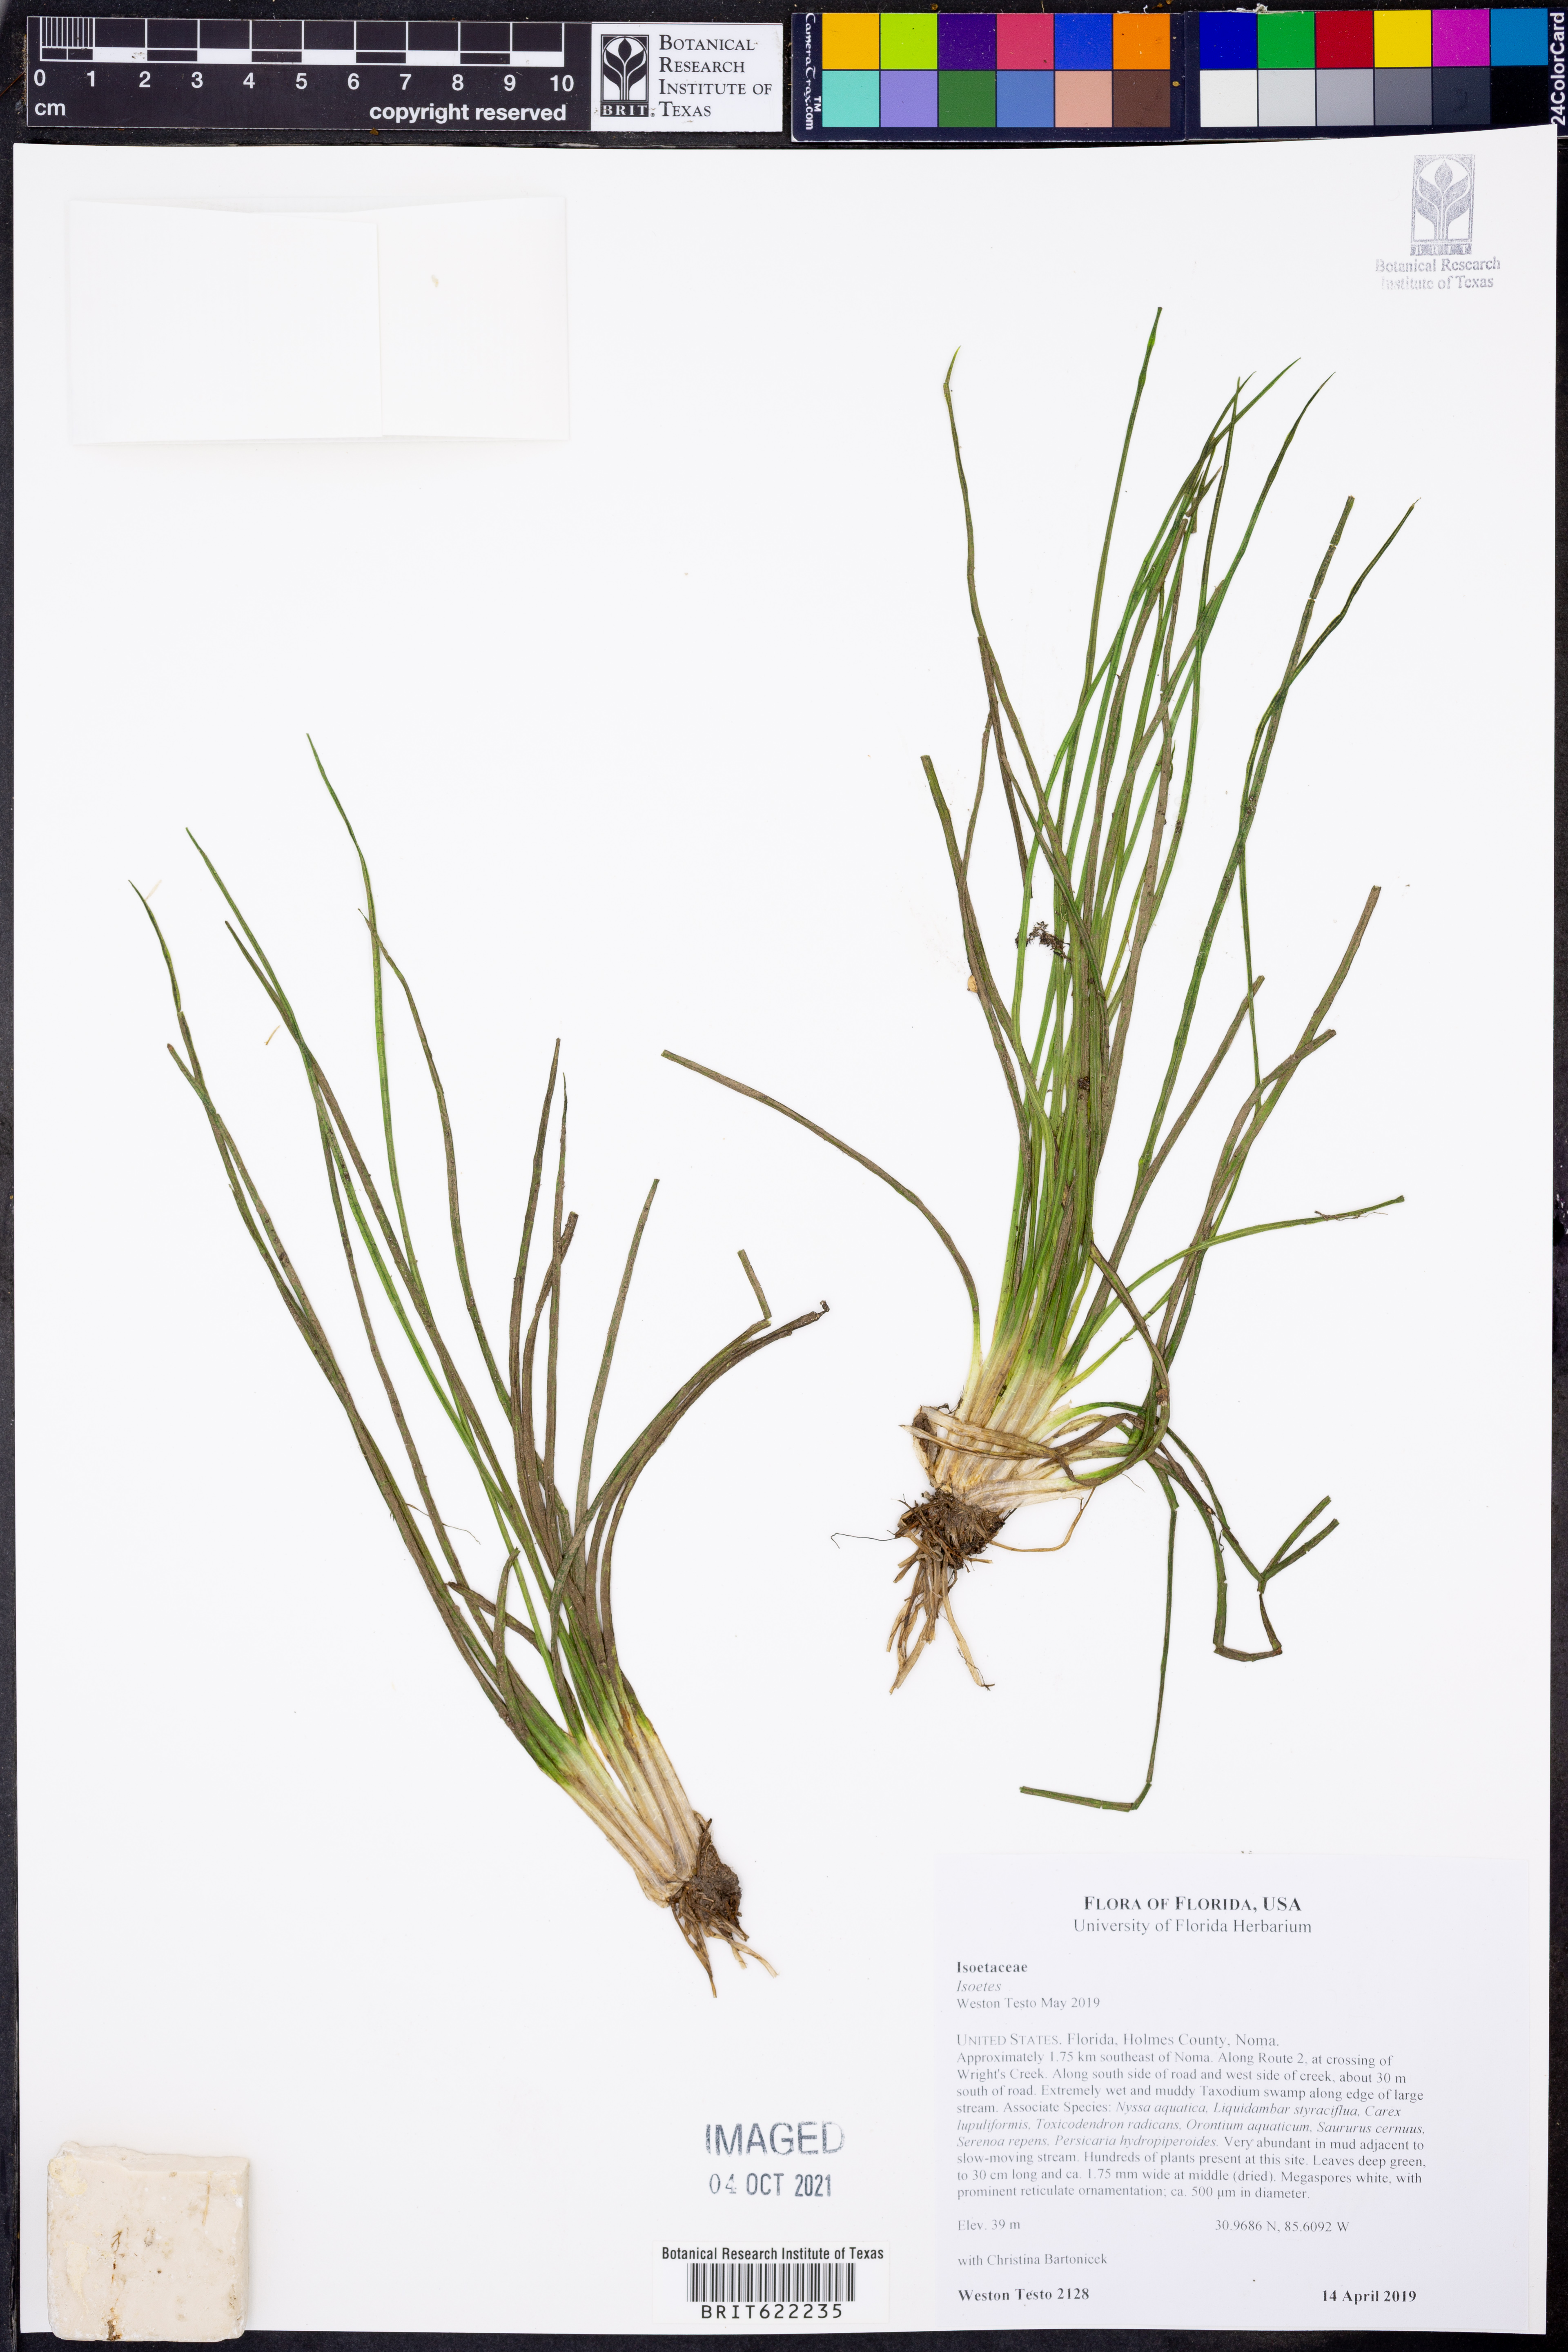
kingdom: Plantae
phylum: Tracheophyta
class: Lycopodiopsida
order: Isoetales
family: Isoetaceae
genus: Isoetes
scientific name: Isoetes
